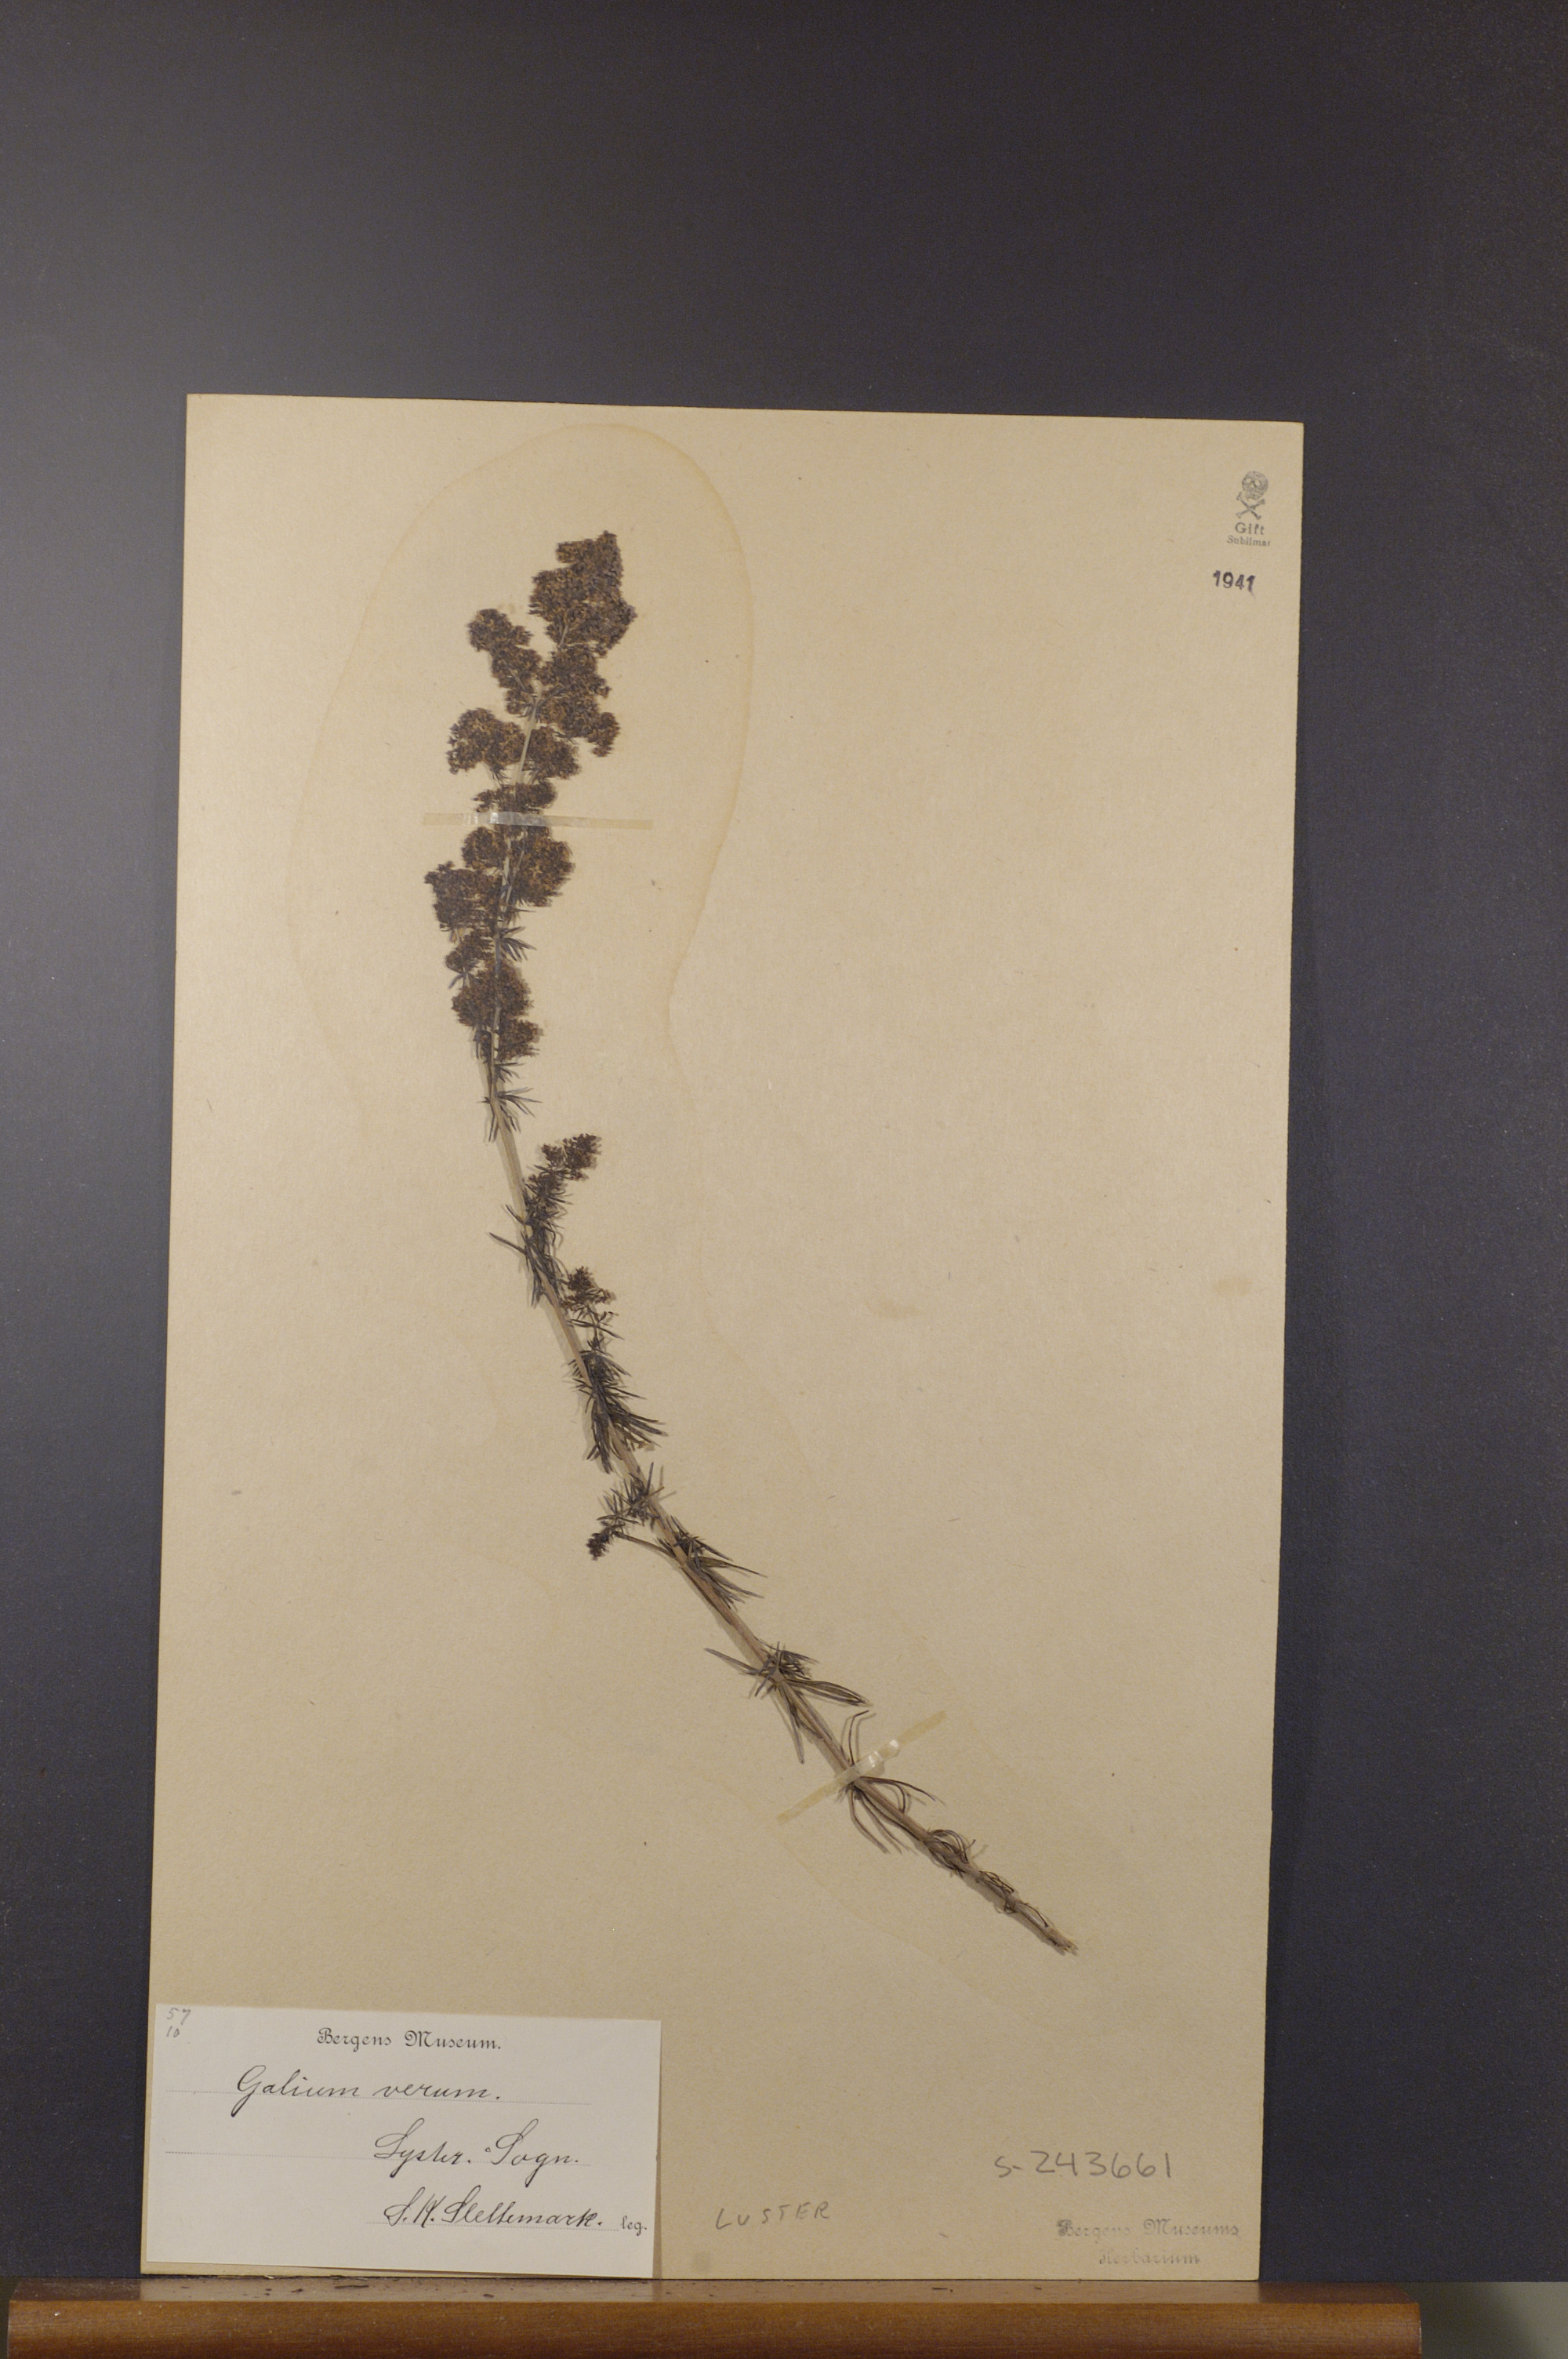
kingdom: Plantae
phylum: Tracheophyta
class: Magnoliopsida
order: Gentianales
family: Rubiaceae
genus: Galium
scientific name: Galium verum
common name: Lady's bedstraw
